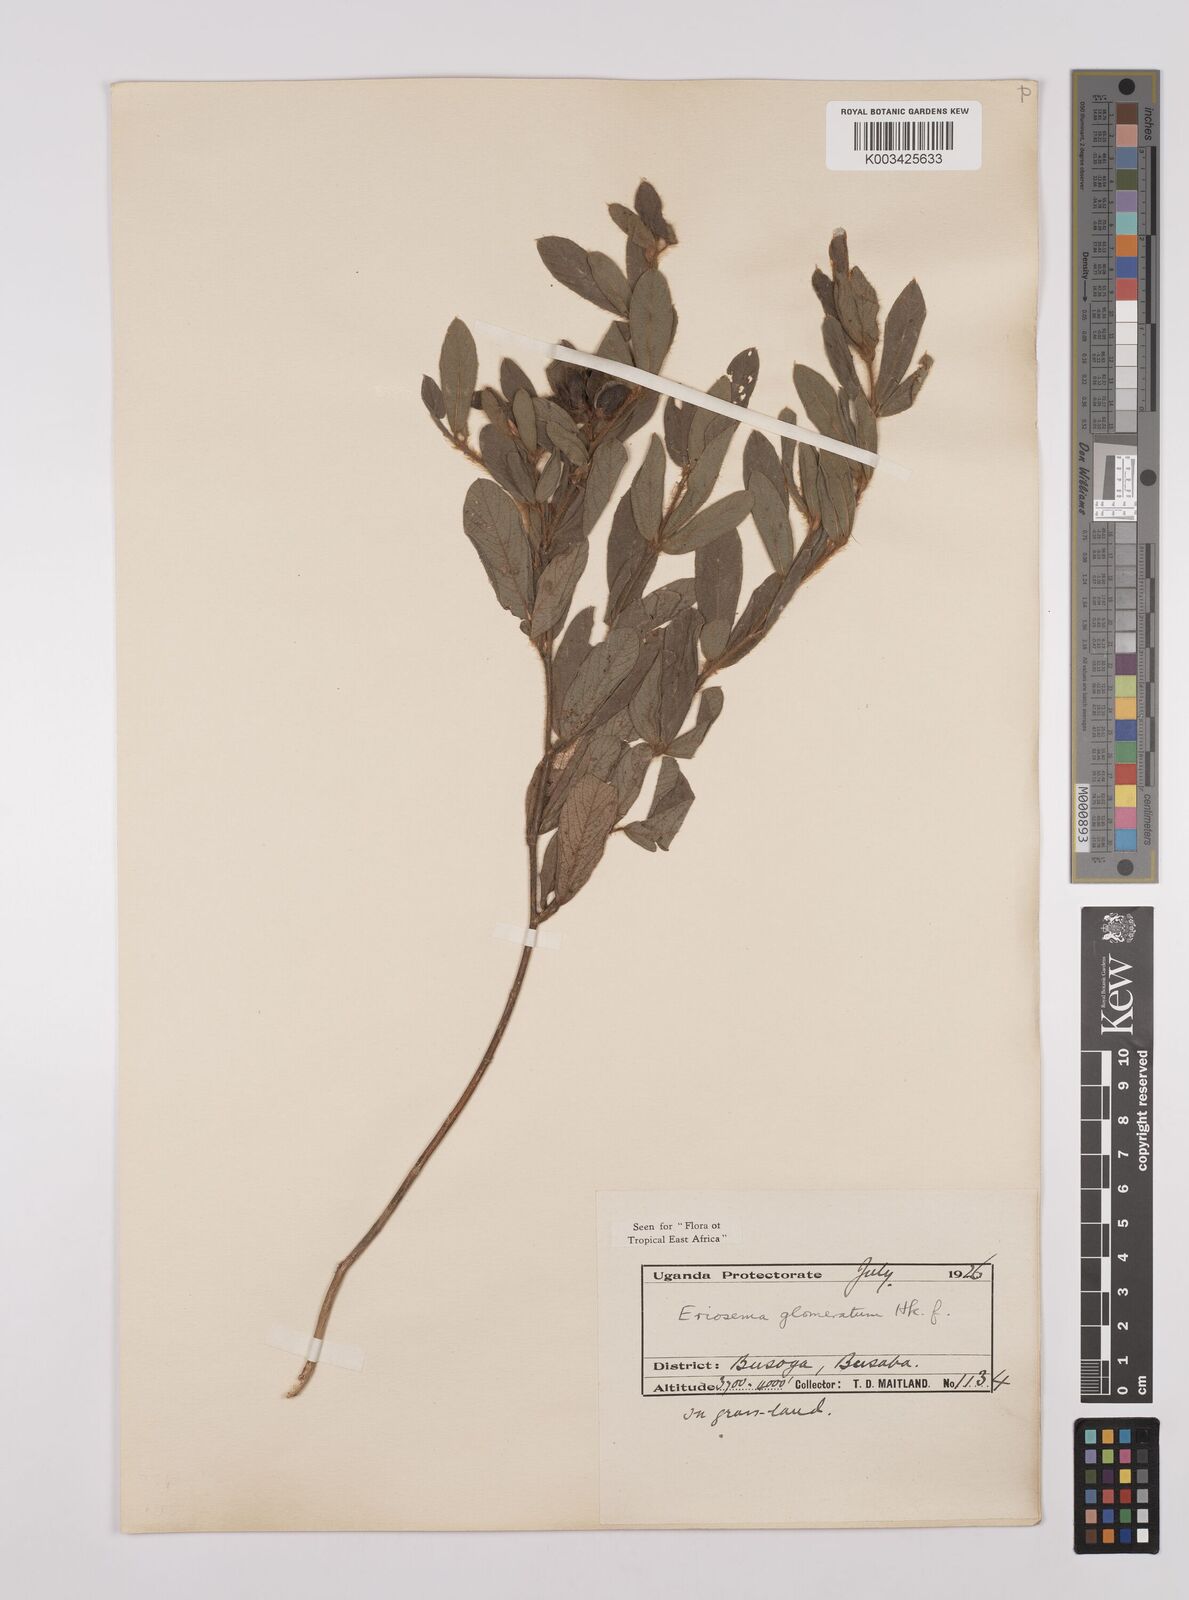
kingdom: Plantae
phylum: Tracheophyta
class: Magnoliopsida
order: Fabales
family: Fabaceae
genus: Eriosema
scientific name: Eriosema glomeratum
